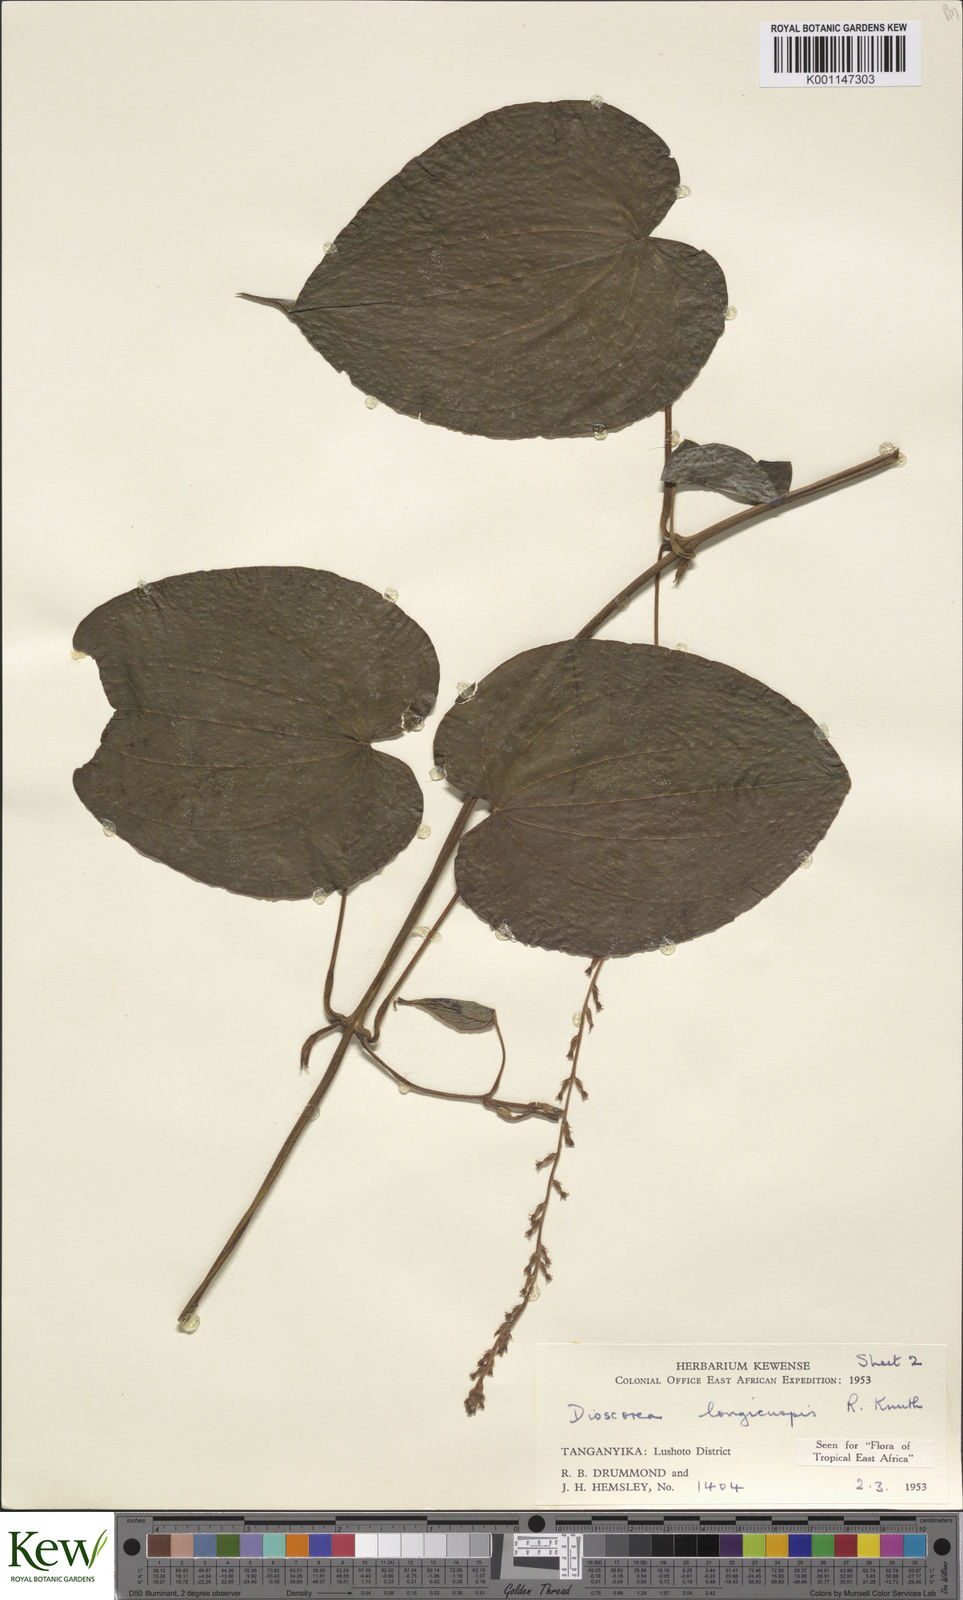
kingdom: Plantae
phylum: Tracheophyta
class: Liliopsida
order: Dioscoreales
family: Dioscoreaceae
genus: Dioscorea
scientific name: Dioscorea longicuspis
